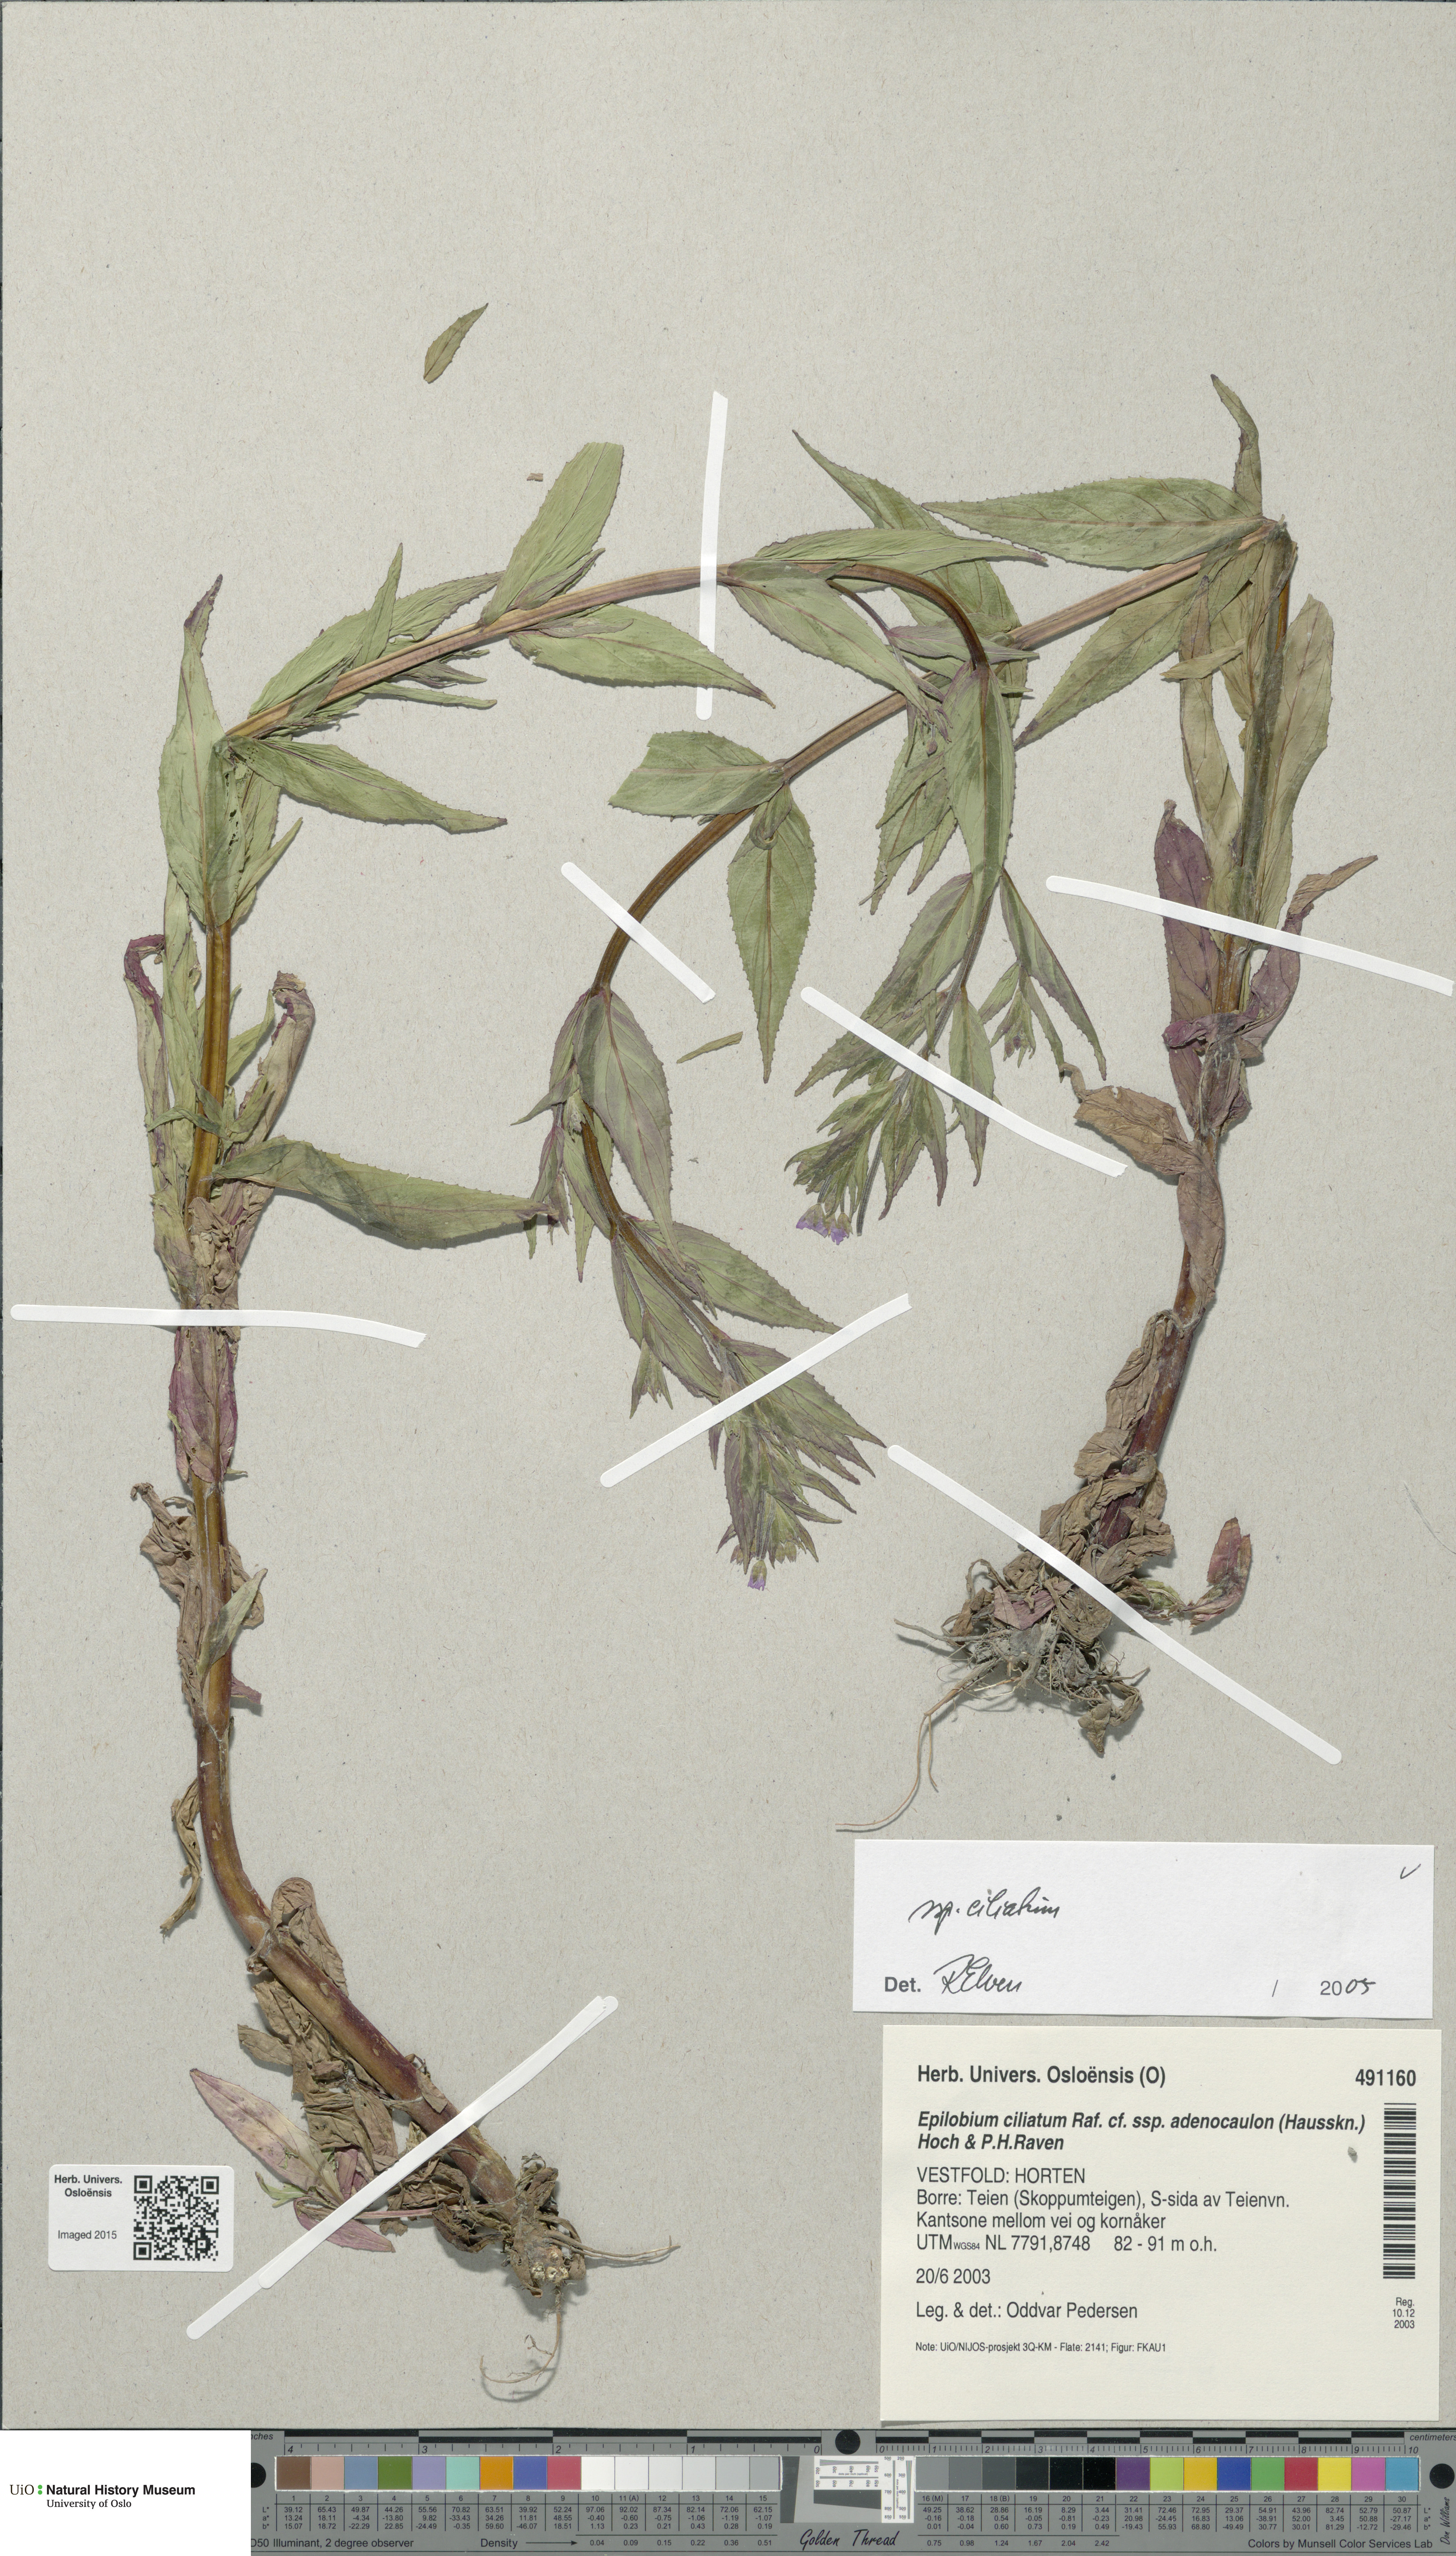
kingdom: Plantae
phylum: Tracheophyta
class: Magnoliopsida
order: Myrtales
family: Onagraceae
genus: Epilobium
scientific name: Epilobium ciliatum
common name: American willowherb
